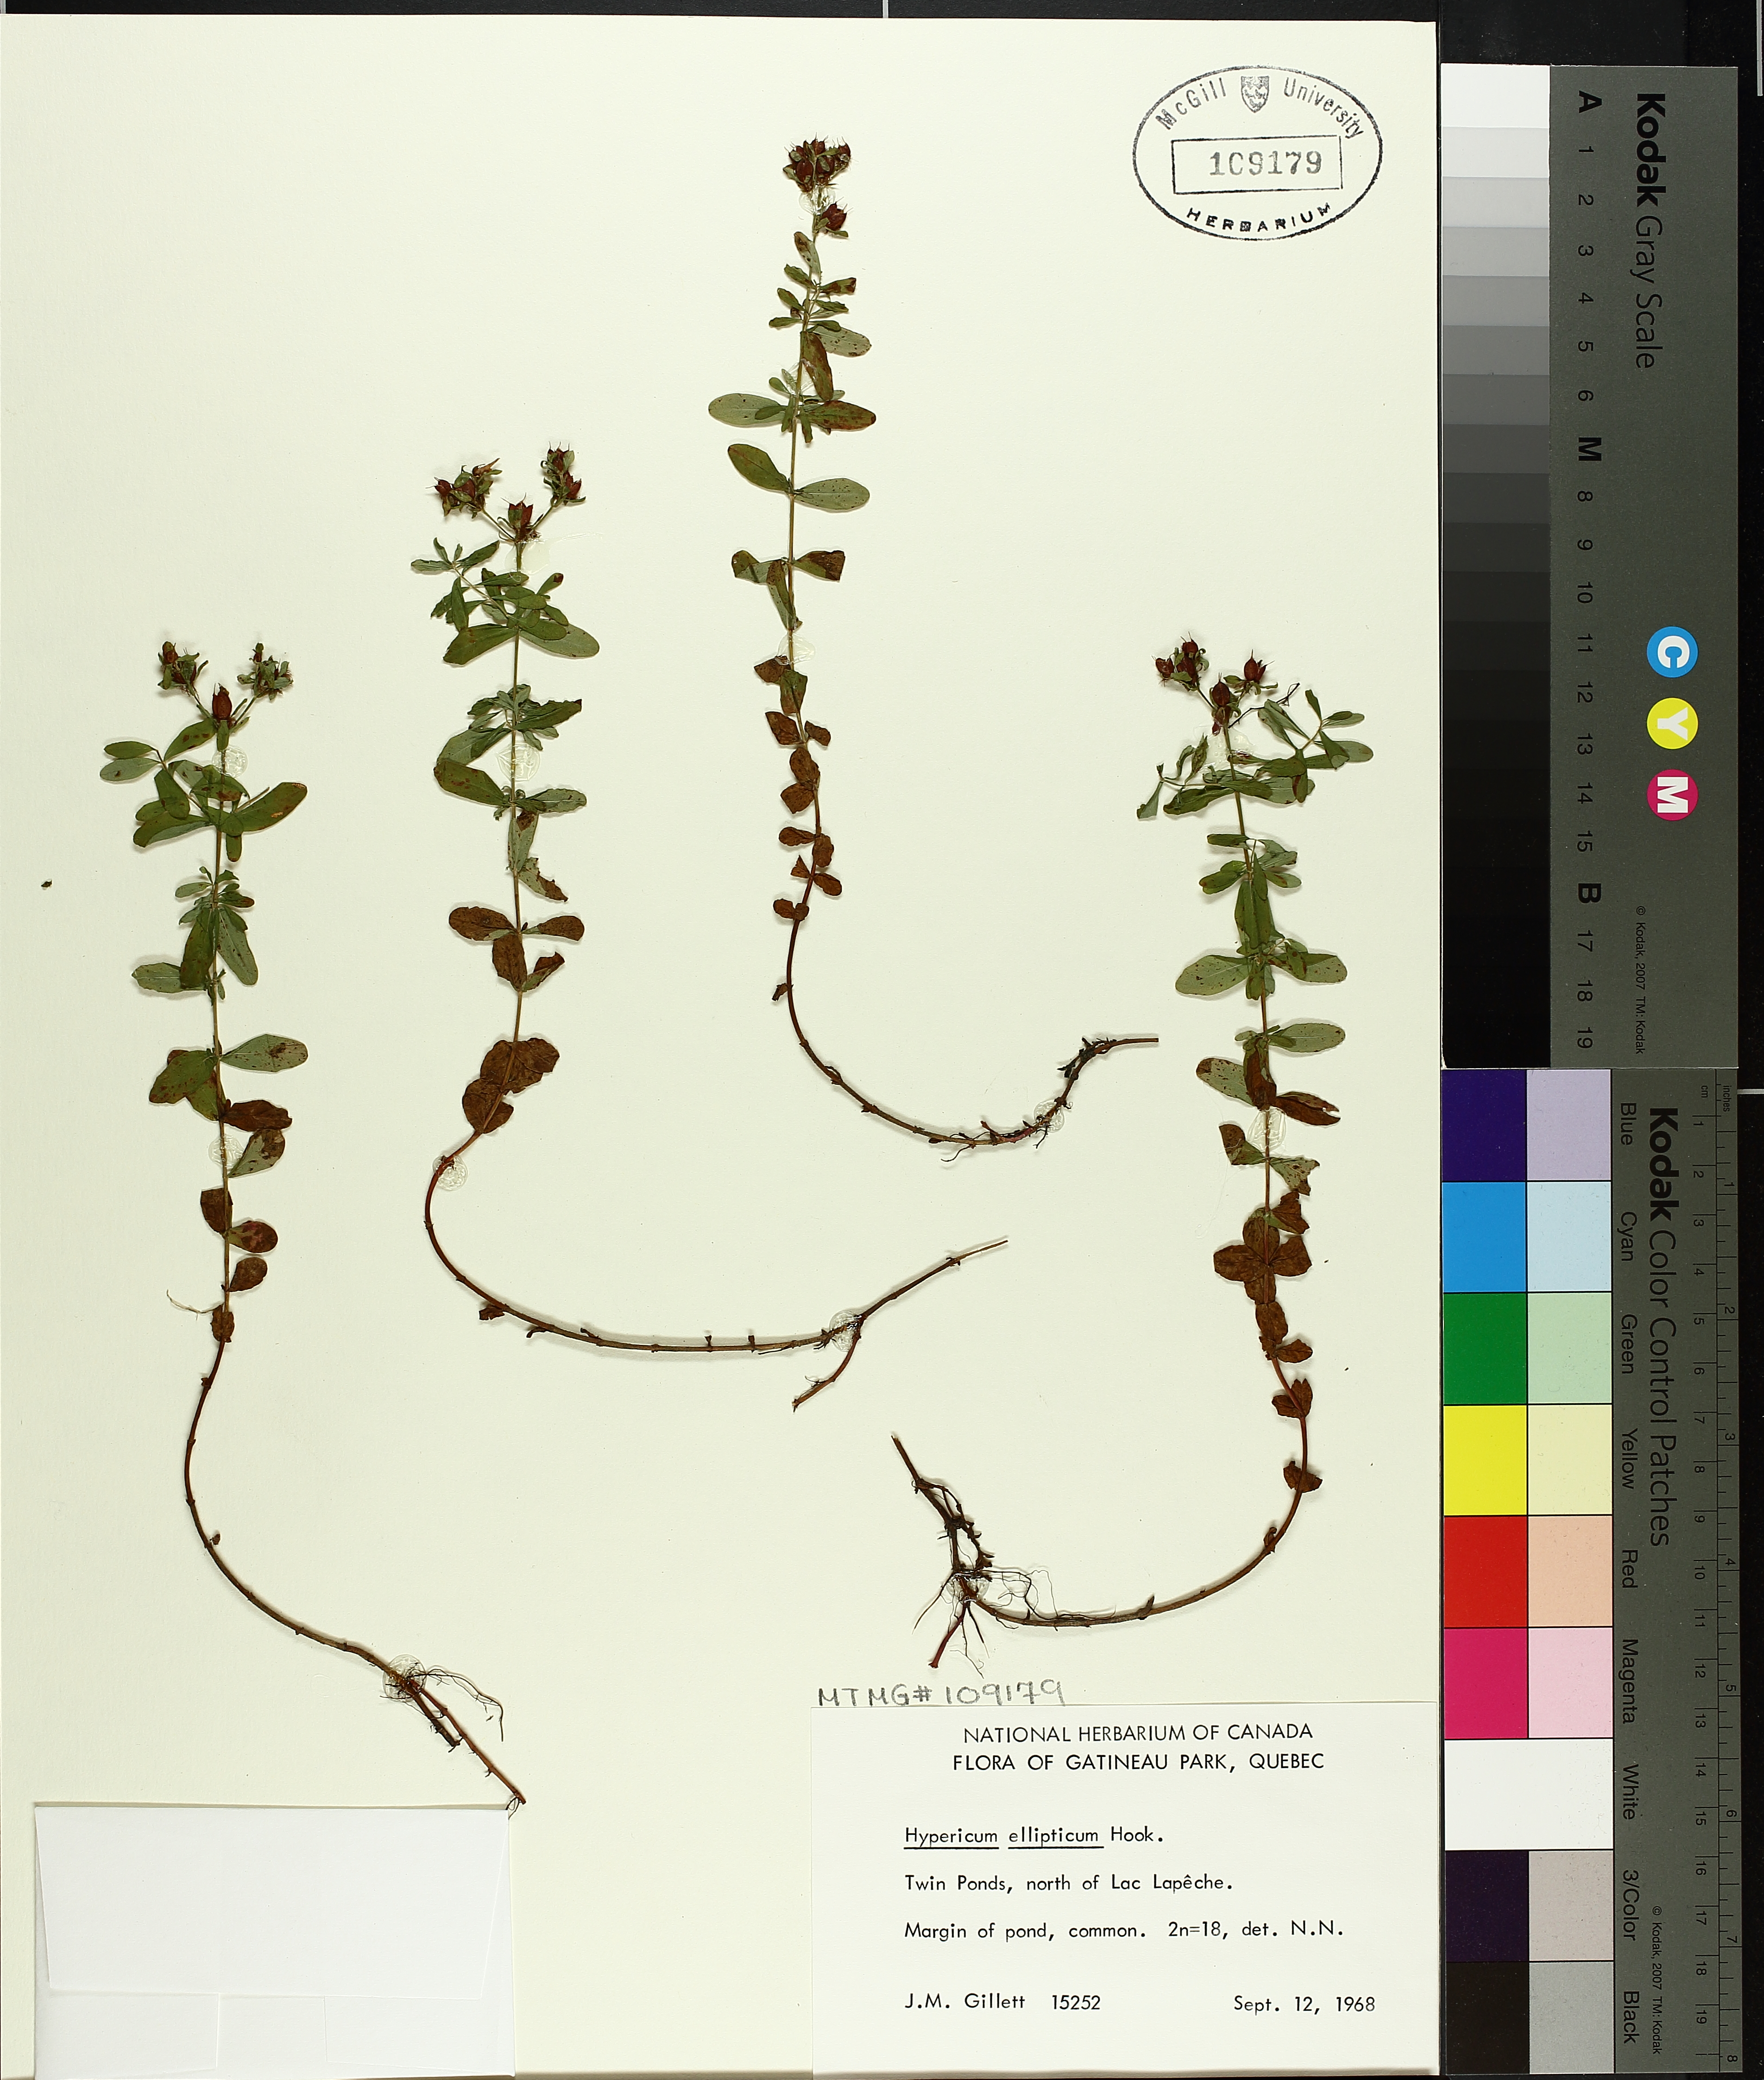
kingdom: Plantae
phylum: Tracheophyta
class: Magnoliopsida
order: Malpighiales
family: Hypericaceae
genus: Hypericum
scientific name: Hypericum ellipticum
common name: Elliptic st. john's-wort
